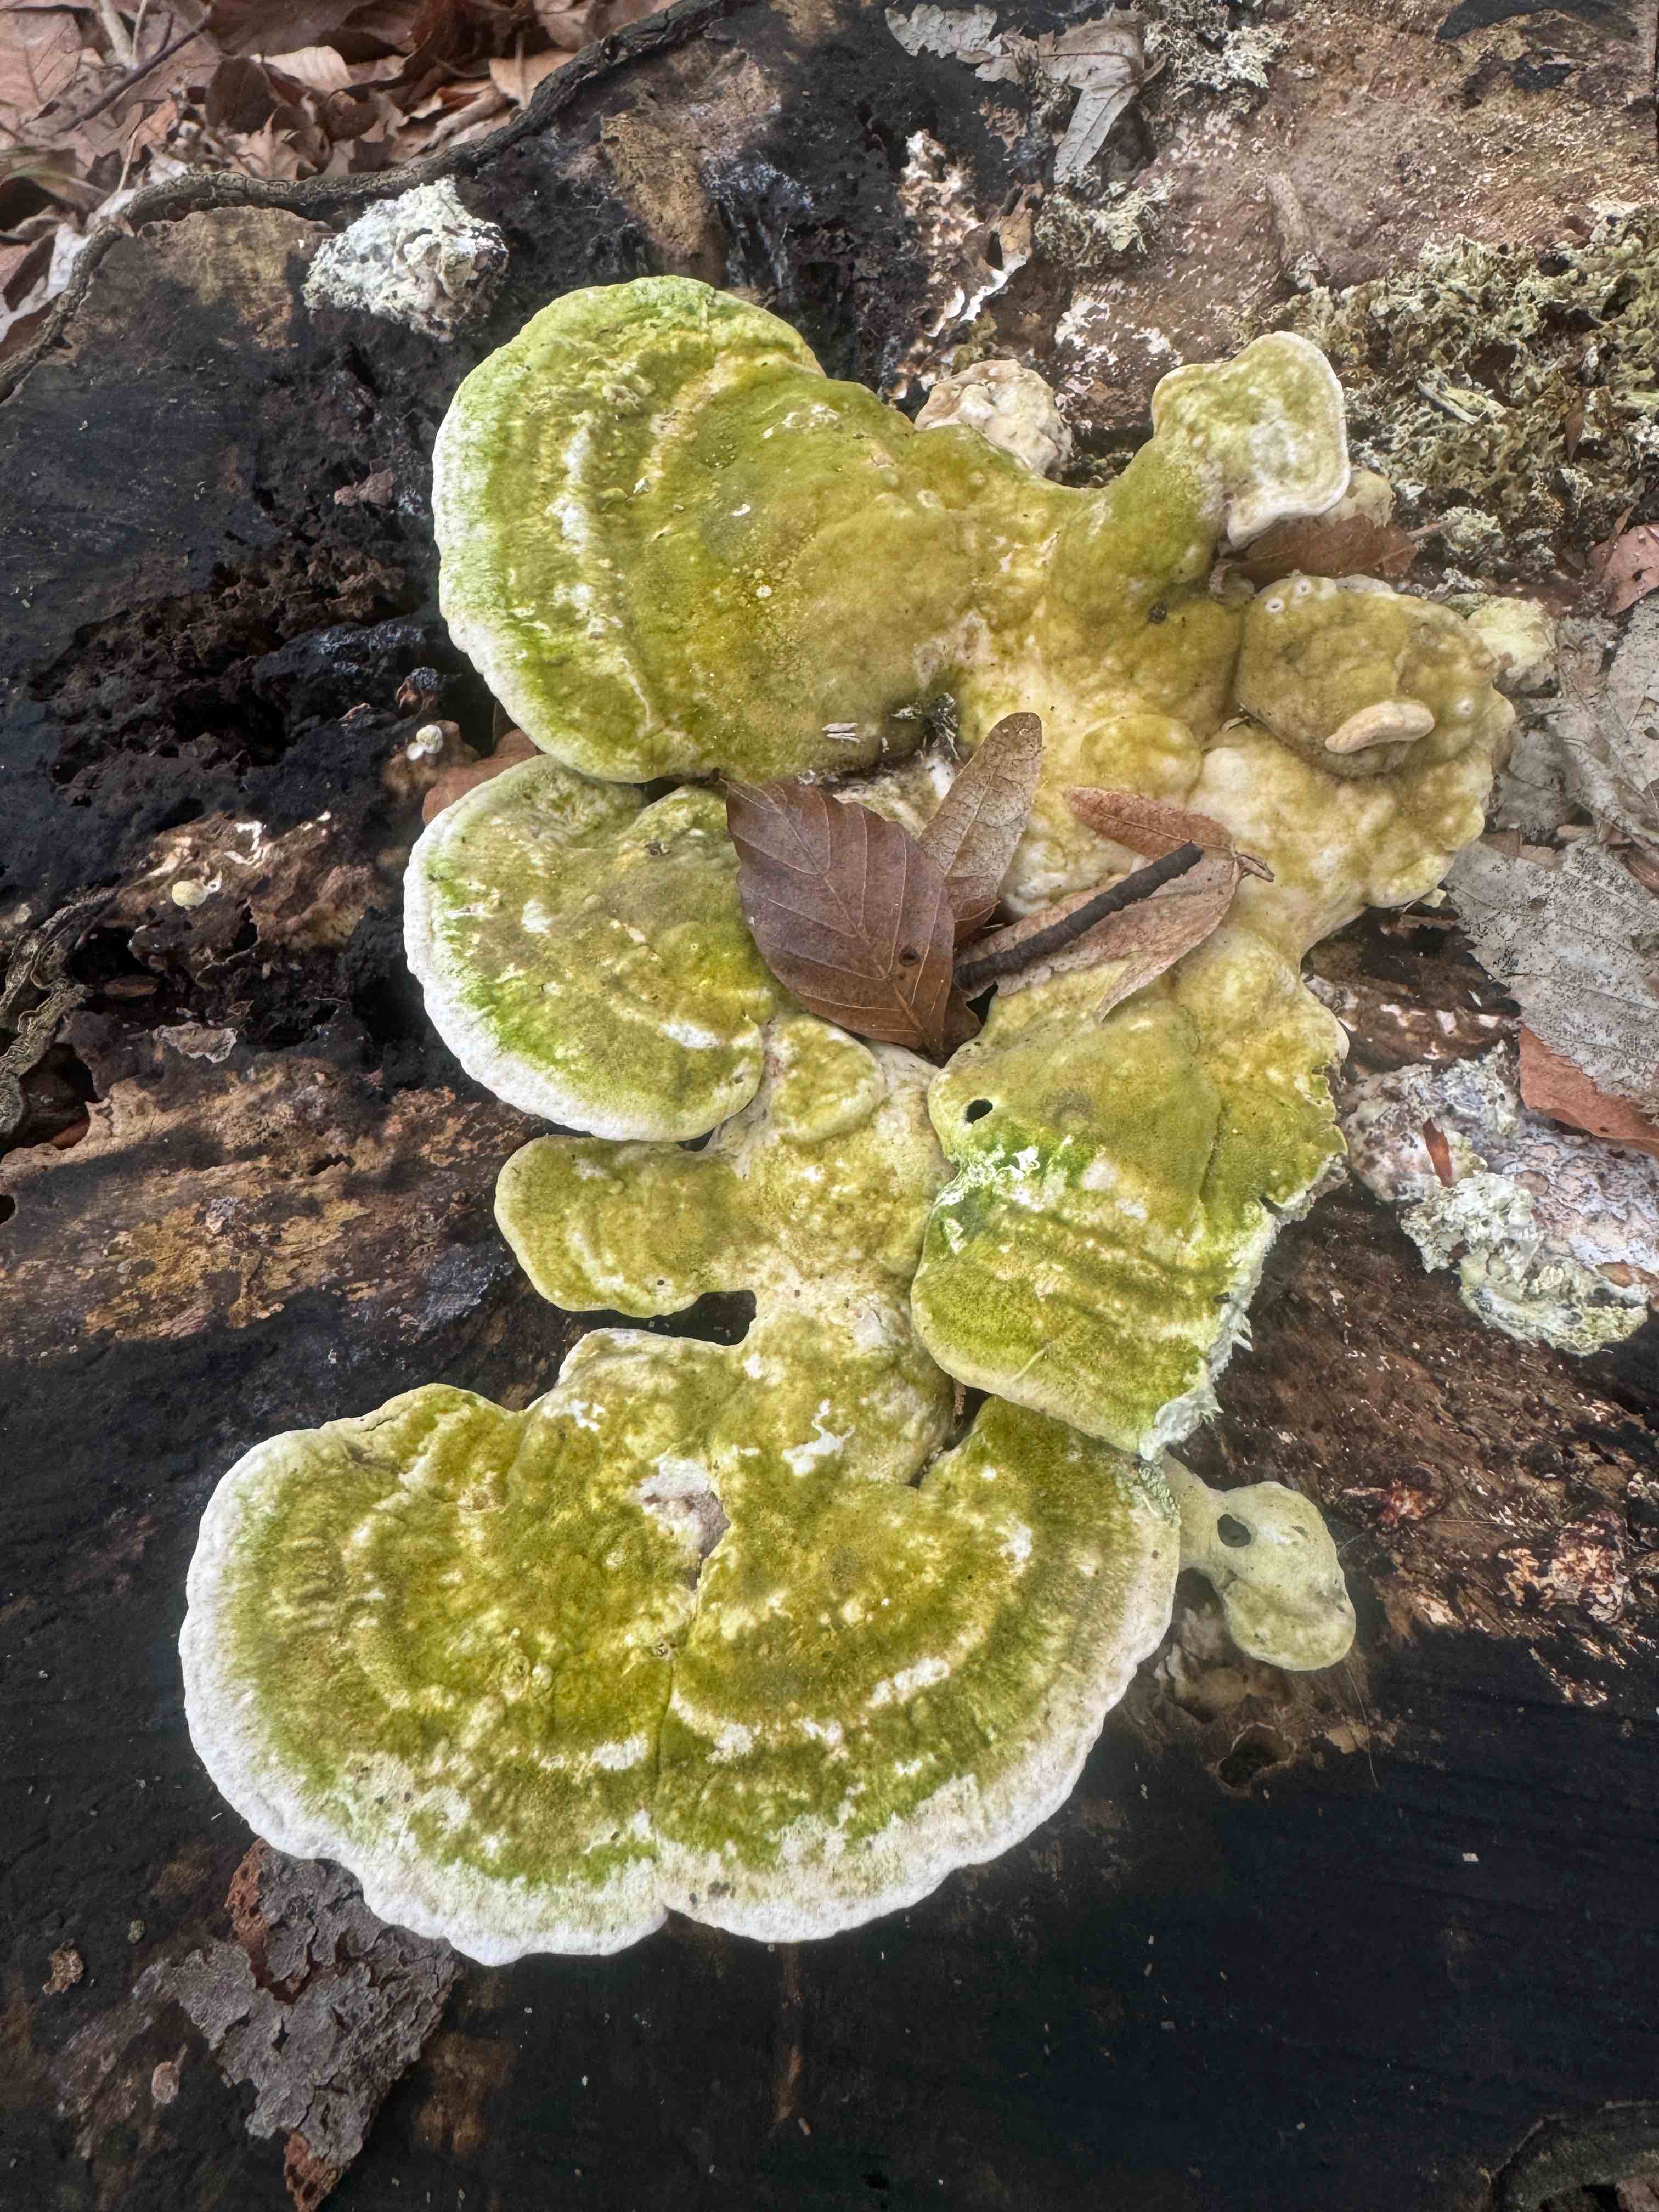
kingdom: Fungi
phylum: Basidiomycota
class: Agaricomycetes
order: Polyporales
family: Polyporaceae
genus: Trametes
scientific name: Trametes gibbosa
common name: puklet læderporesvamp
